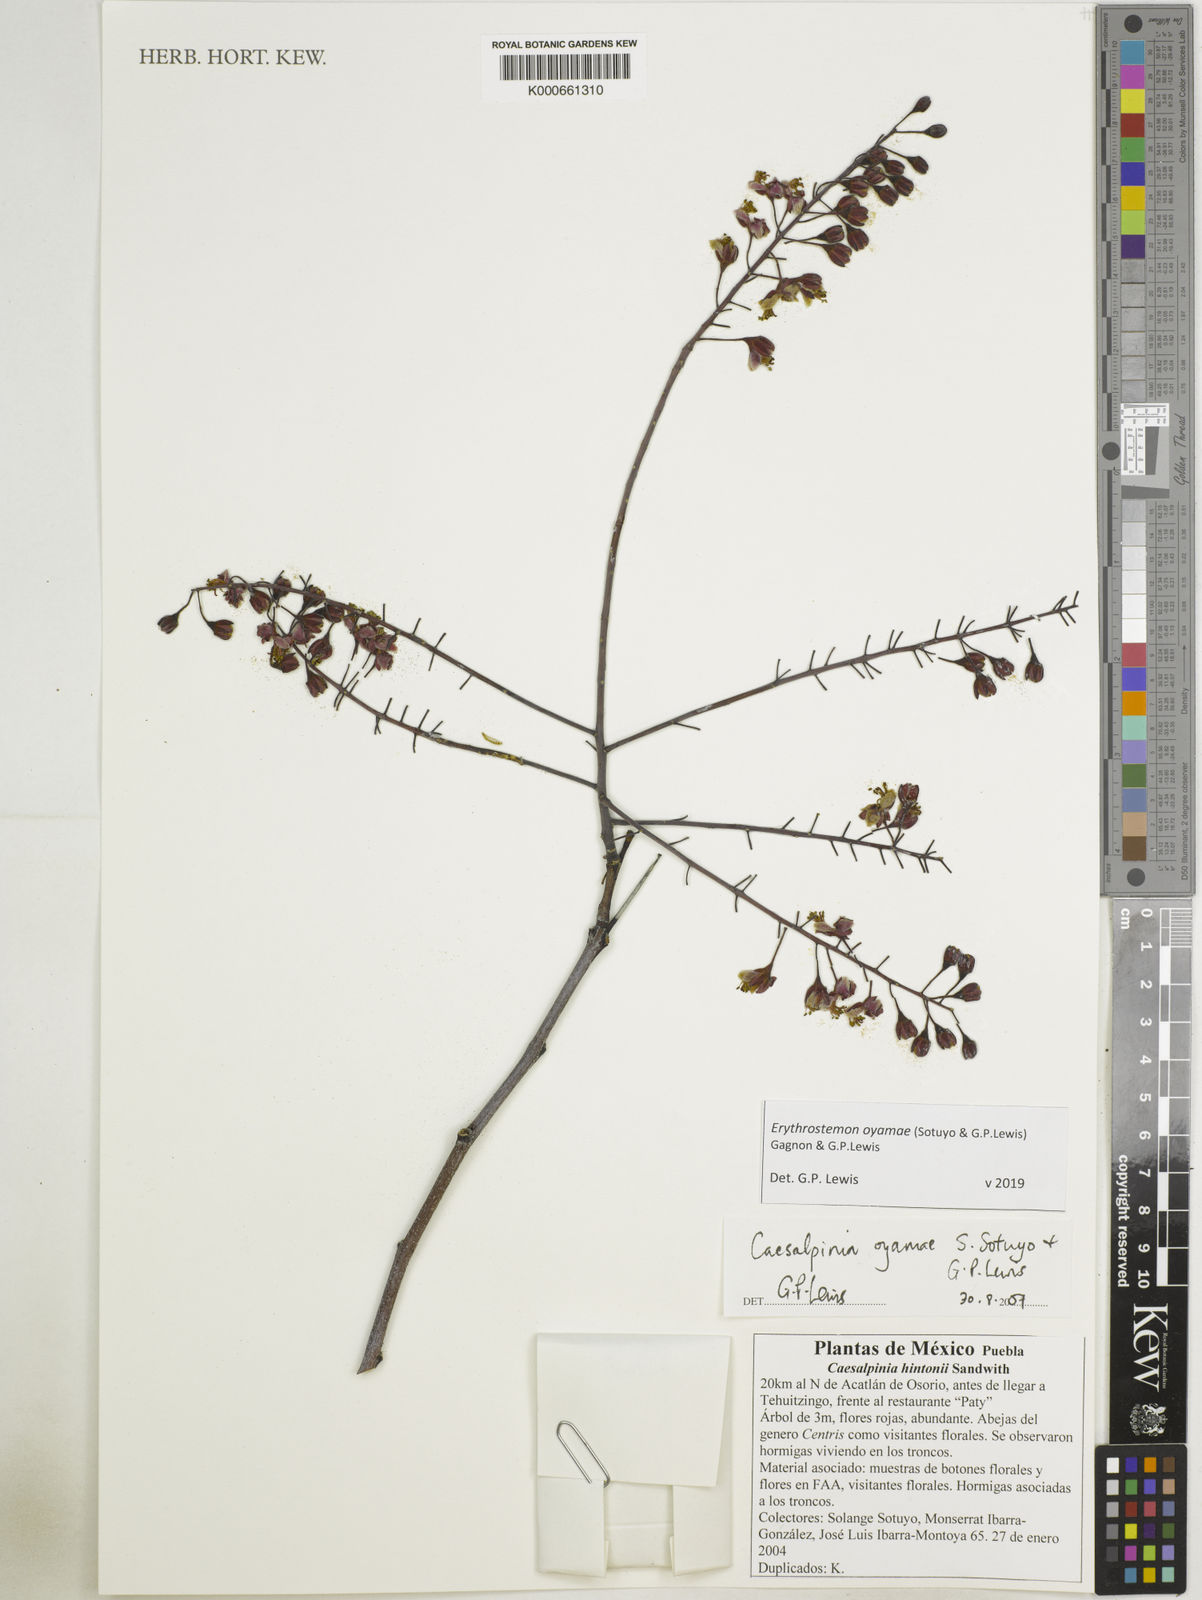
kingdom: Plantae
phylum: Tracheophyta
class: Magnoliopsida
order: Fabales
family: Fabaceae
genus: Erythrostemon
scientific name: Erythrostemon oyamae
